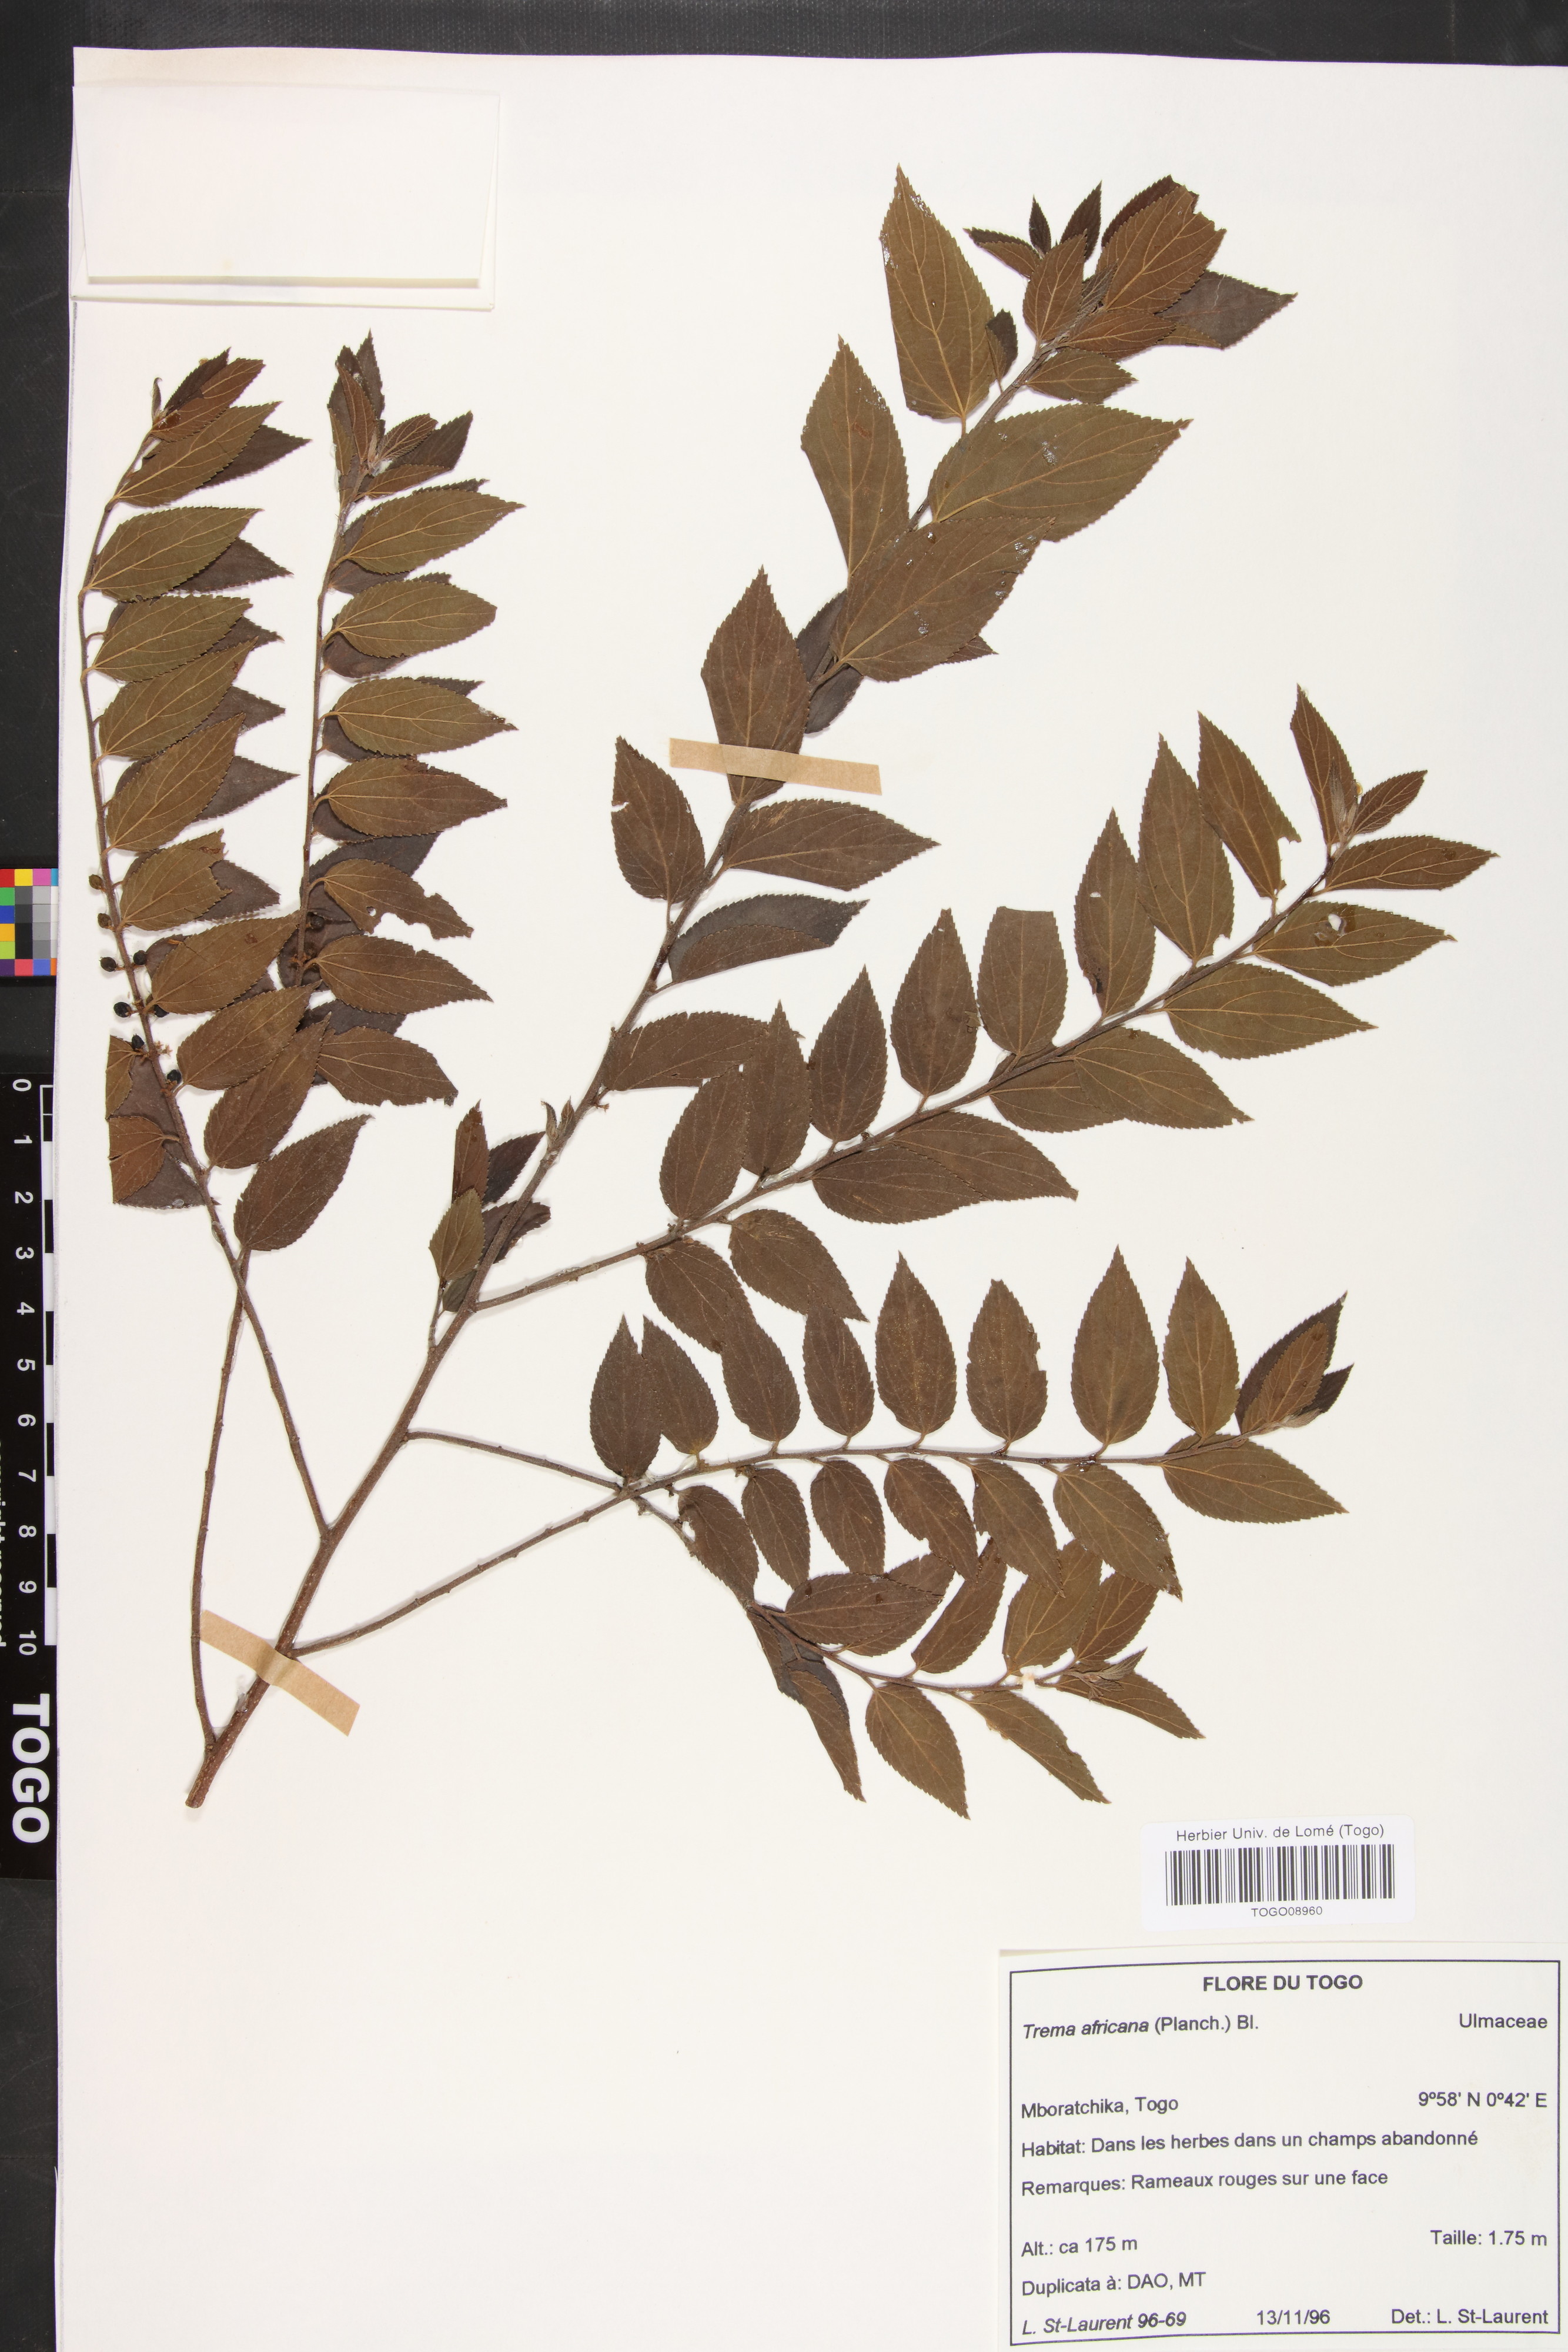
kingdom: Plantae
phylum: Tracheophyta
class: Magnoliopsida
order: Rosales
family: Cannabaceae
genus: Trema
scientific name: Trema orientale
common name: Indian charcoal tree
